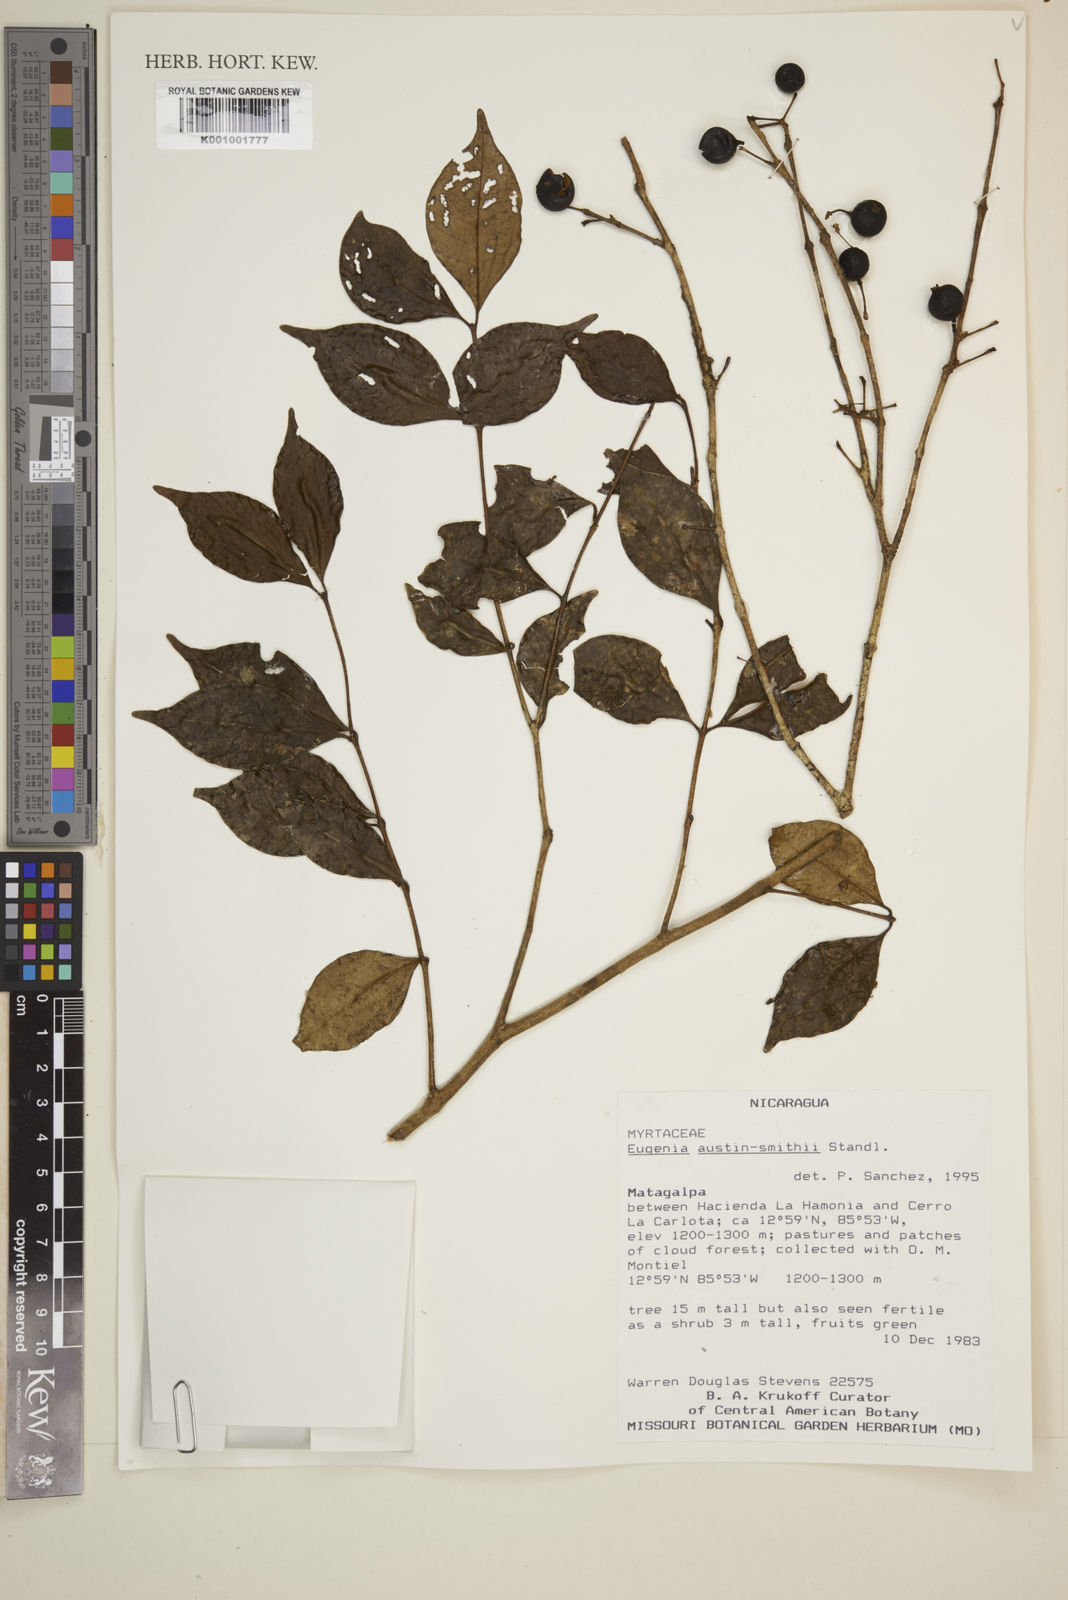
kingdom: Plantae
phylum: Tracheophyta
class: Magnoliopsida
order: Myrtales
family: Myrtaceae
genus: Eugenia
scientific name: Eugenia austin-smithii
